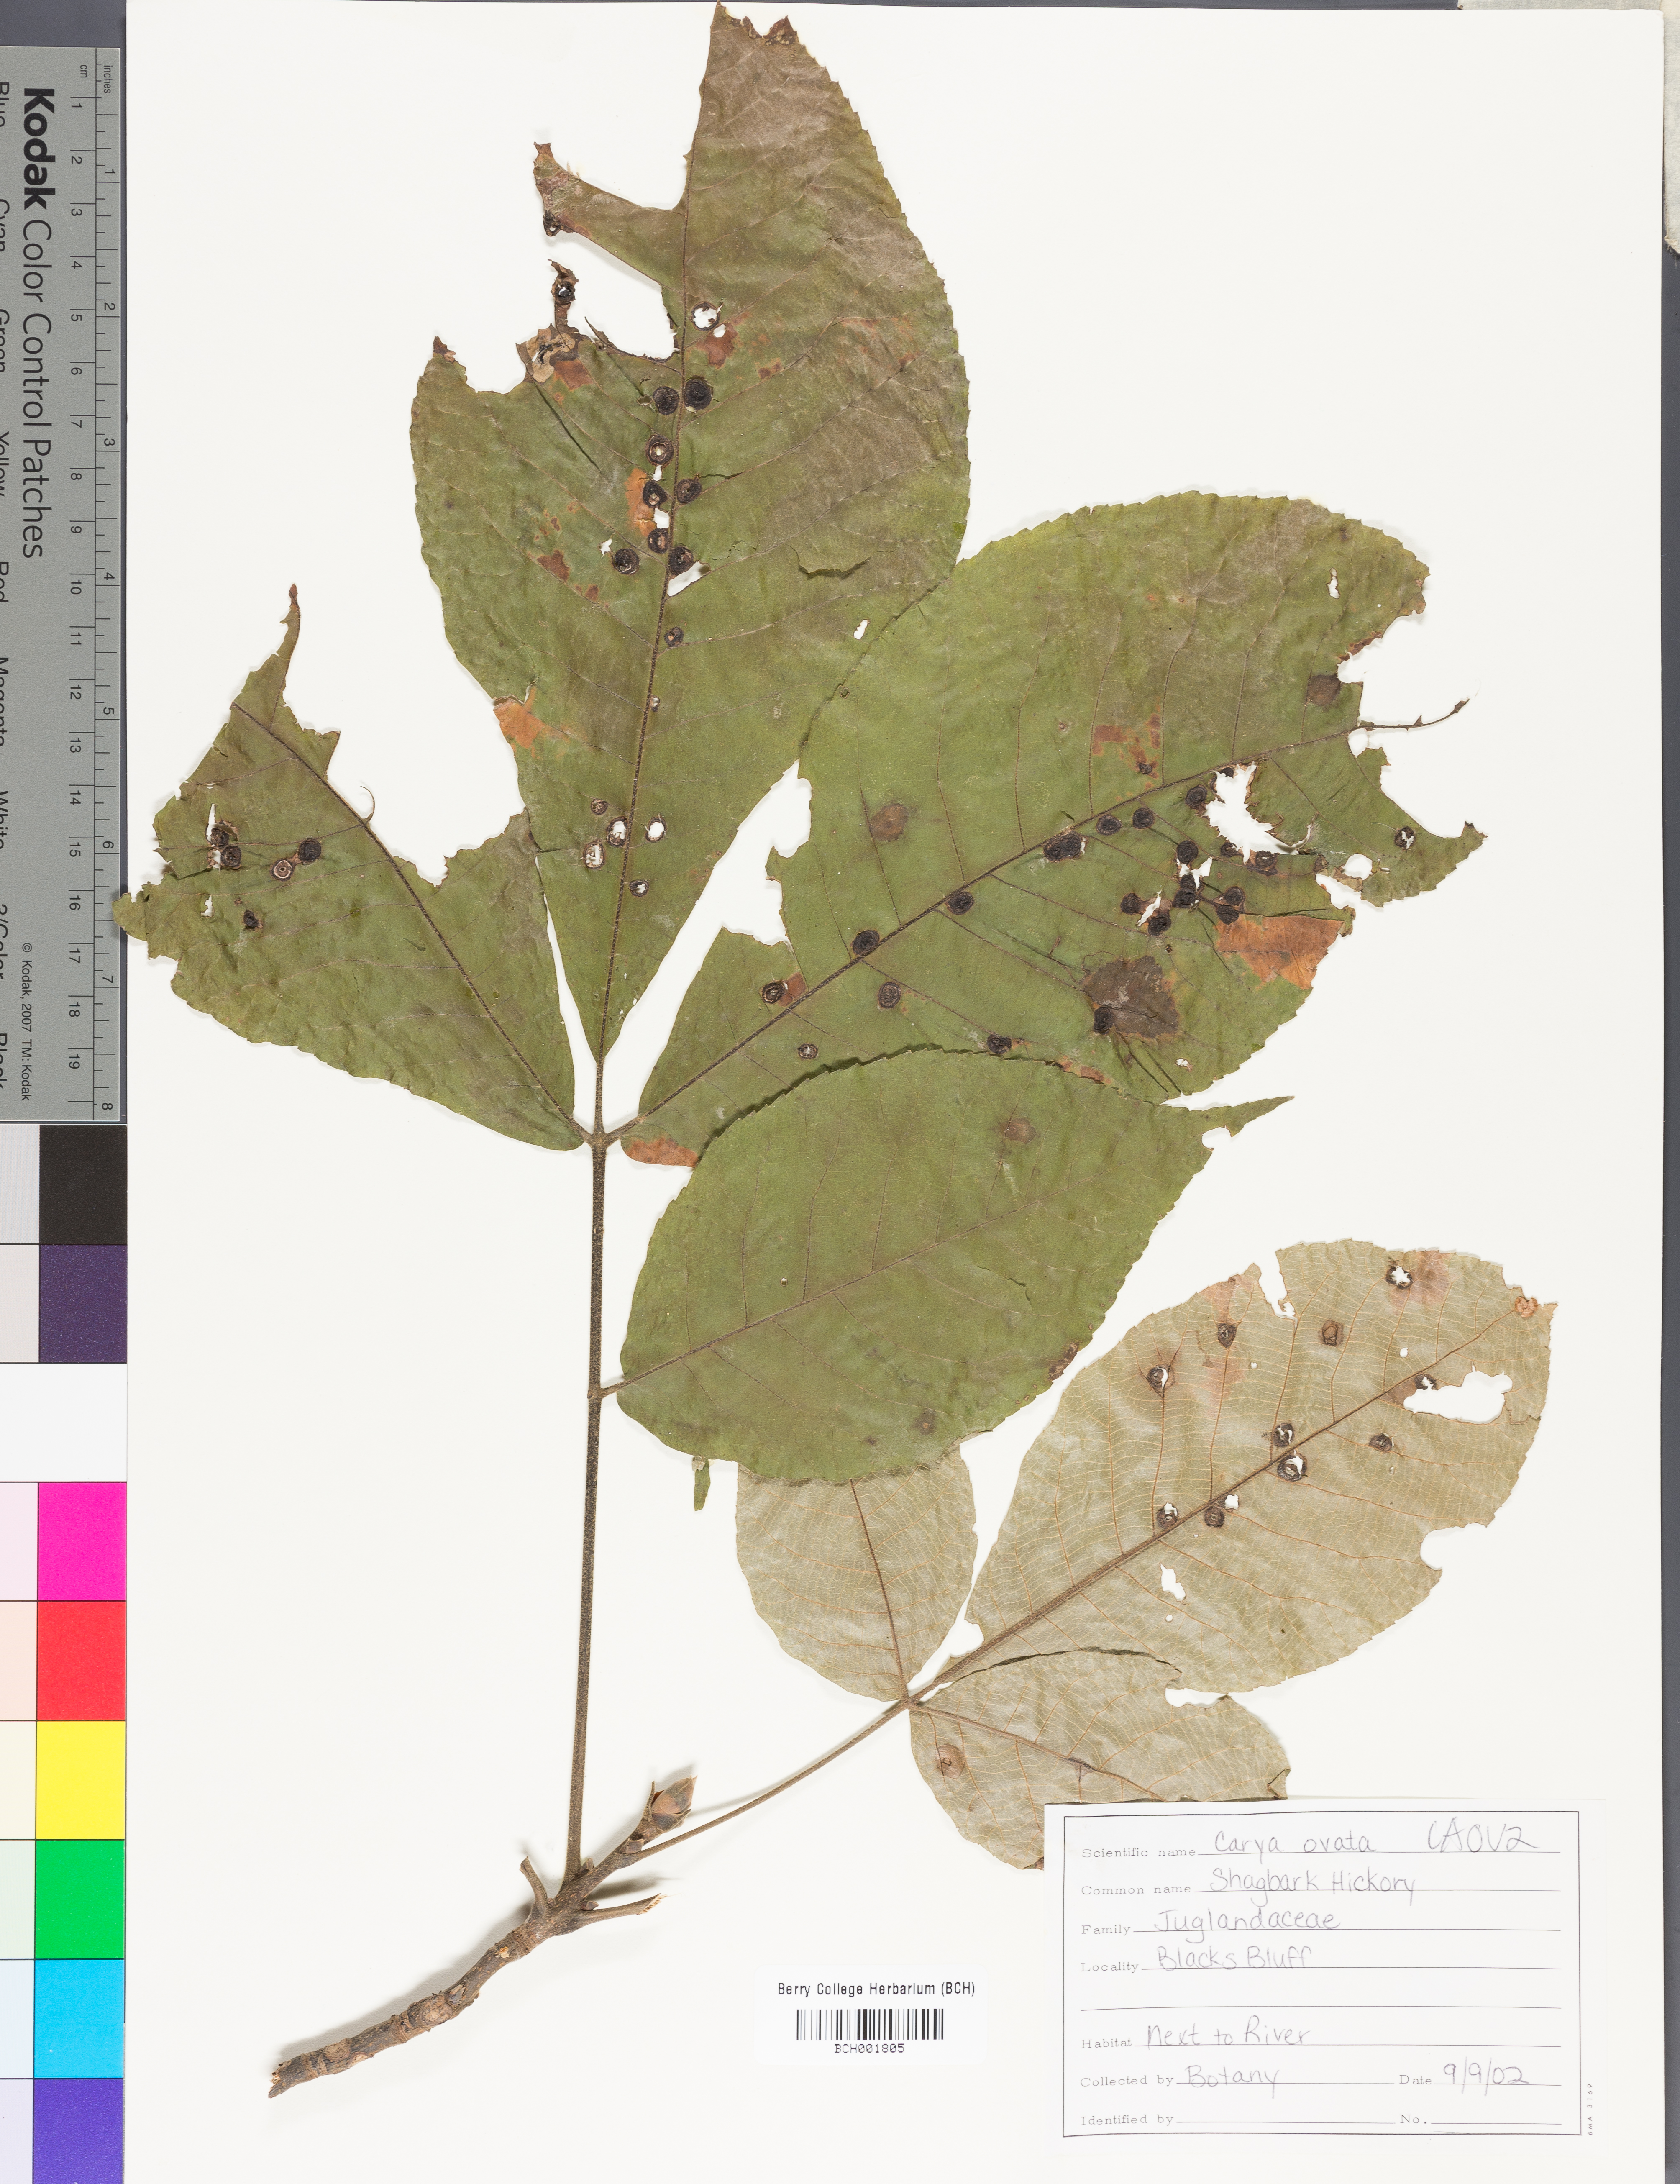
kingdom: Plantae
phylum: Tracheophyta
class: Magnoliopsida
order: Fagales
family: Juglandaceae
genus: Carya
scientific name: Carya ovata
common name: Shagbark hickory
